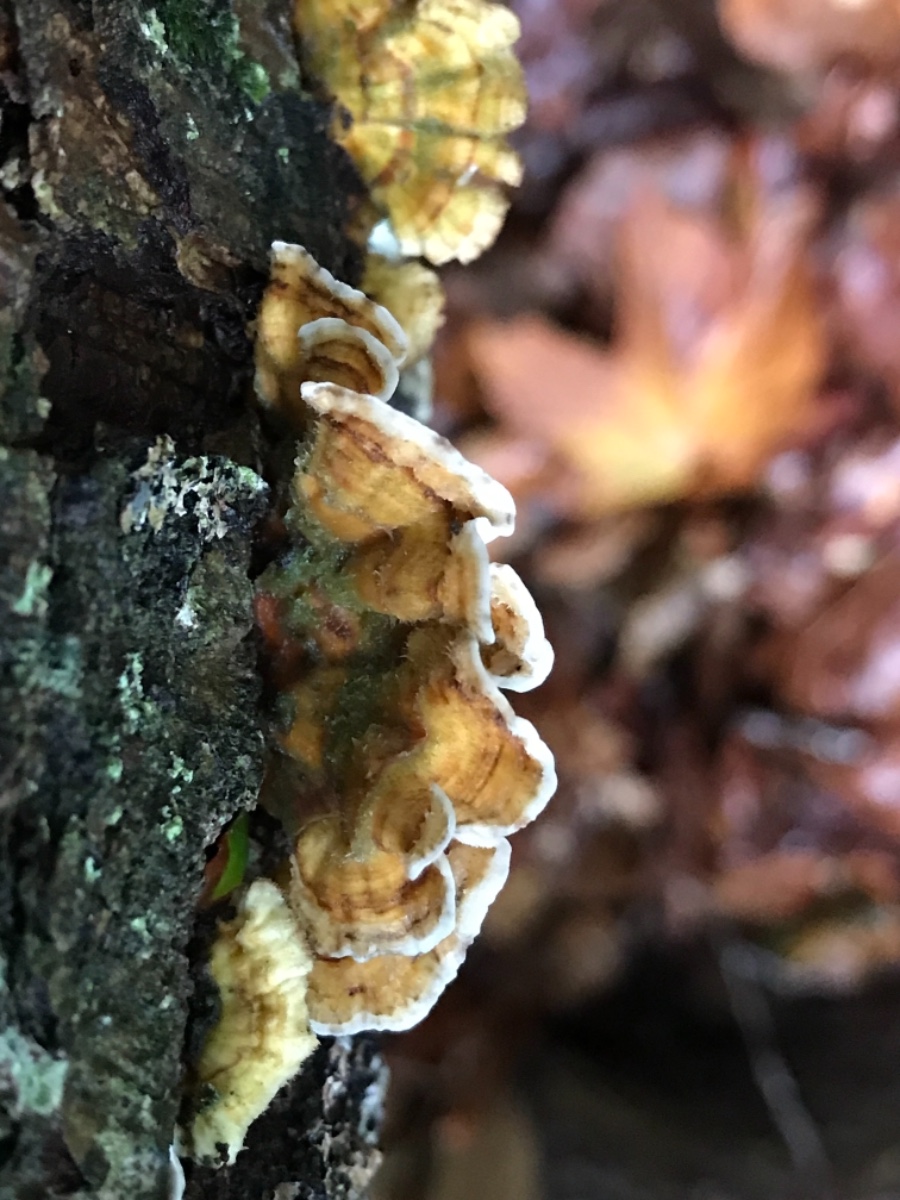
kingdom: Fungi
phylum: Basidiomycota
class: Agaricomycetes
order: Russulales
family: Stereaceae
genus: Stereum
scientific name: Stereum hirsutum
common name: håret lædersvamp
